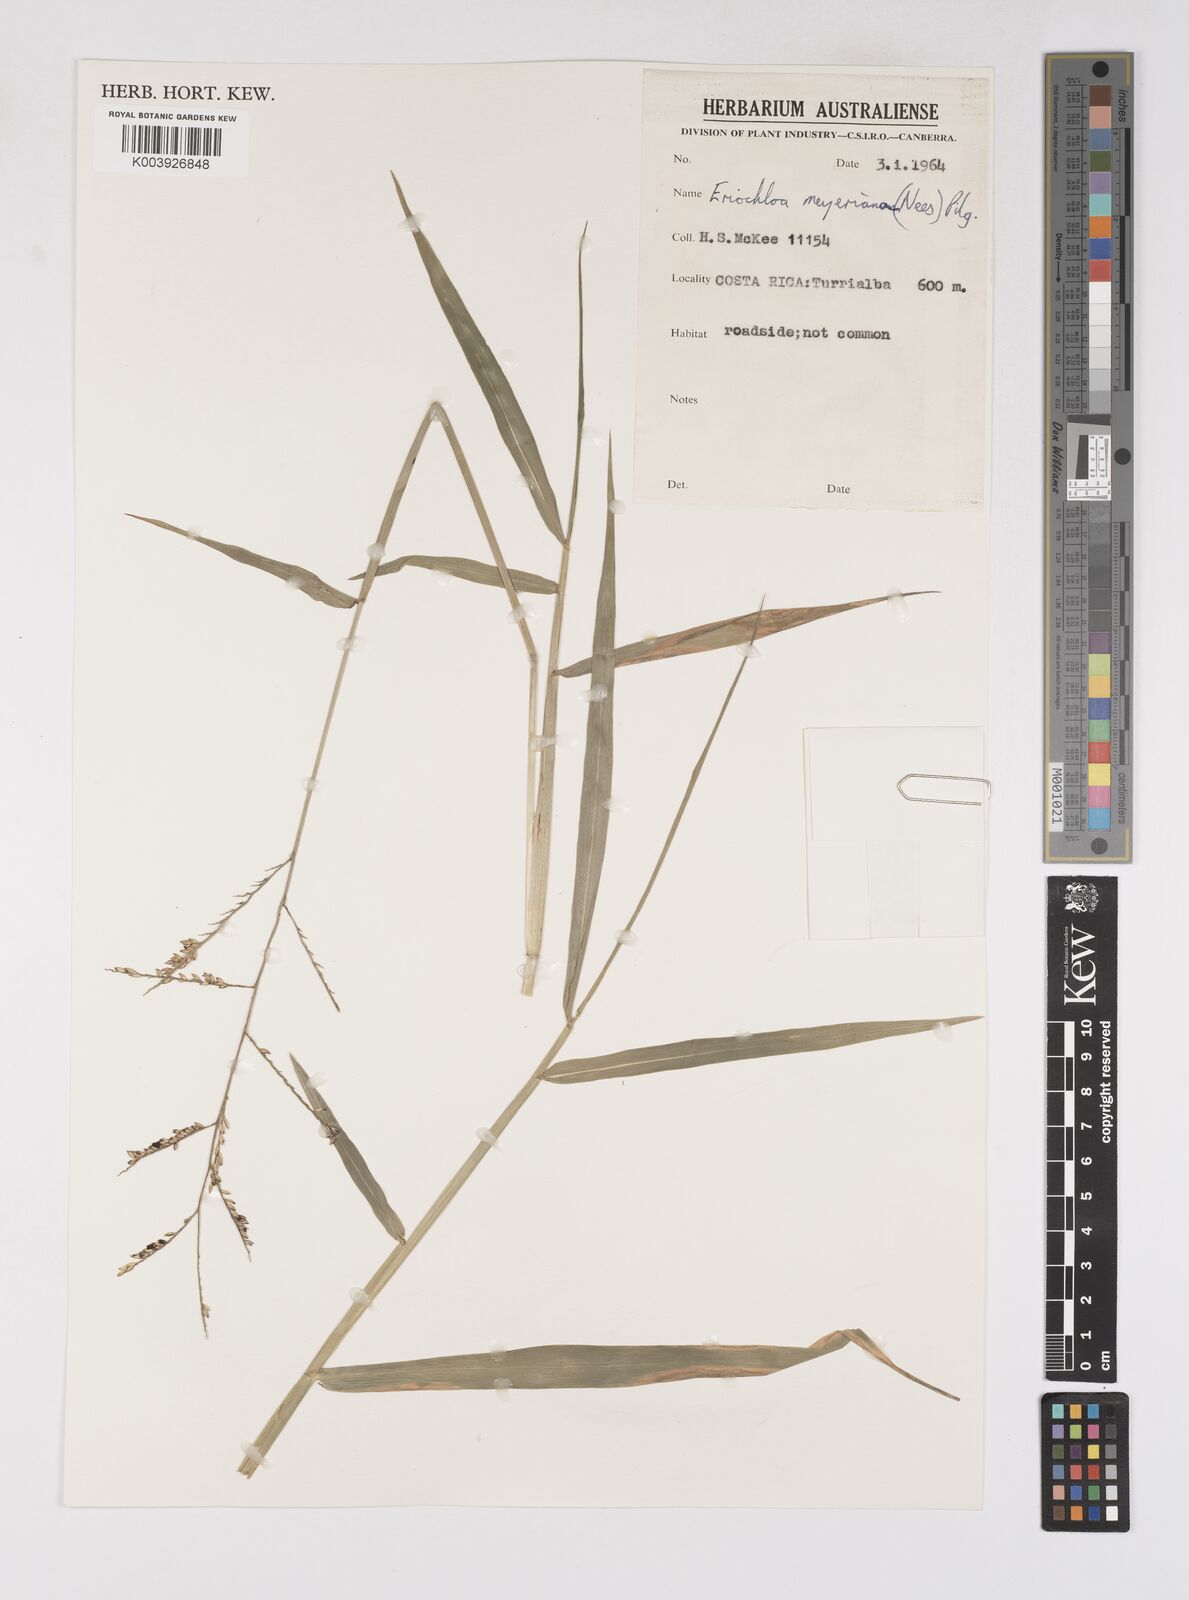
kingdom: Plantae
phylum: Tracheophyta
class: Liliopsida
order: Poales
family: Poaceae
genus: Urochloa
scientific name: Urochloa polystachya
